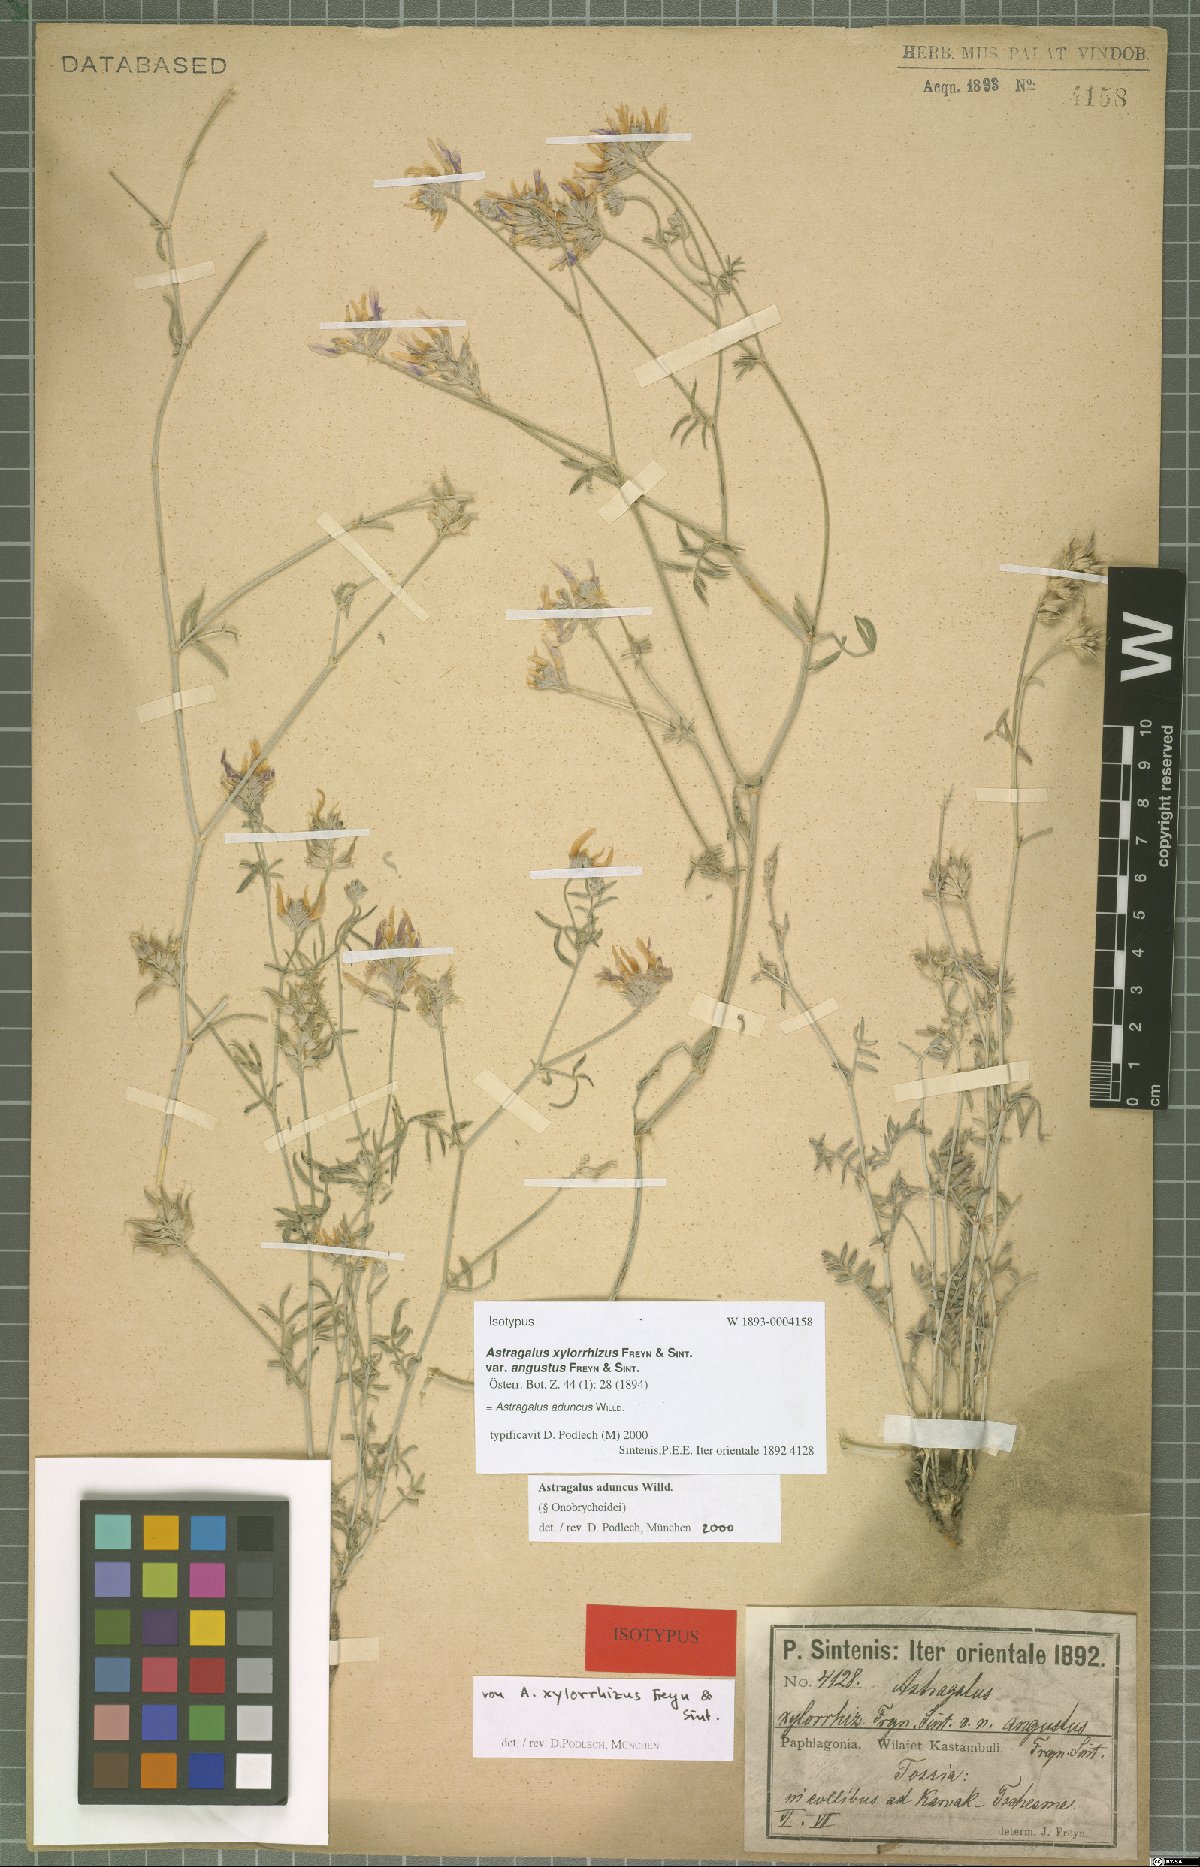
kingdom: Plantae
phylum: Tracheophyta
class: Magnoliopsida
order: Fabales
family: Fabaceae
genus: Astragalus
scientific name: Astragalus aduncus
